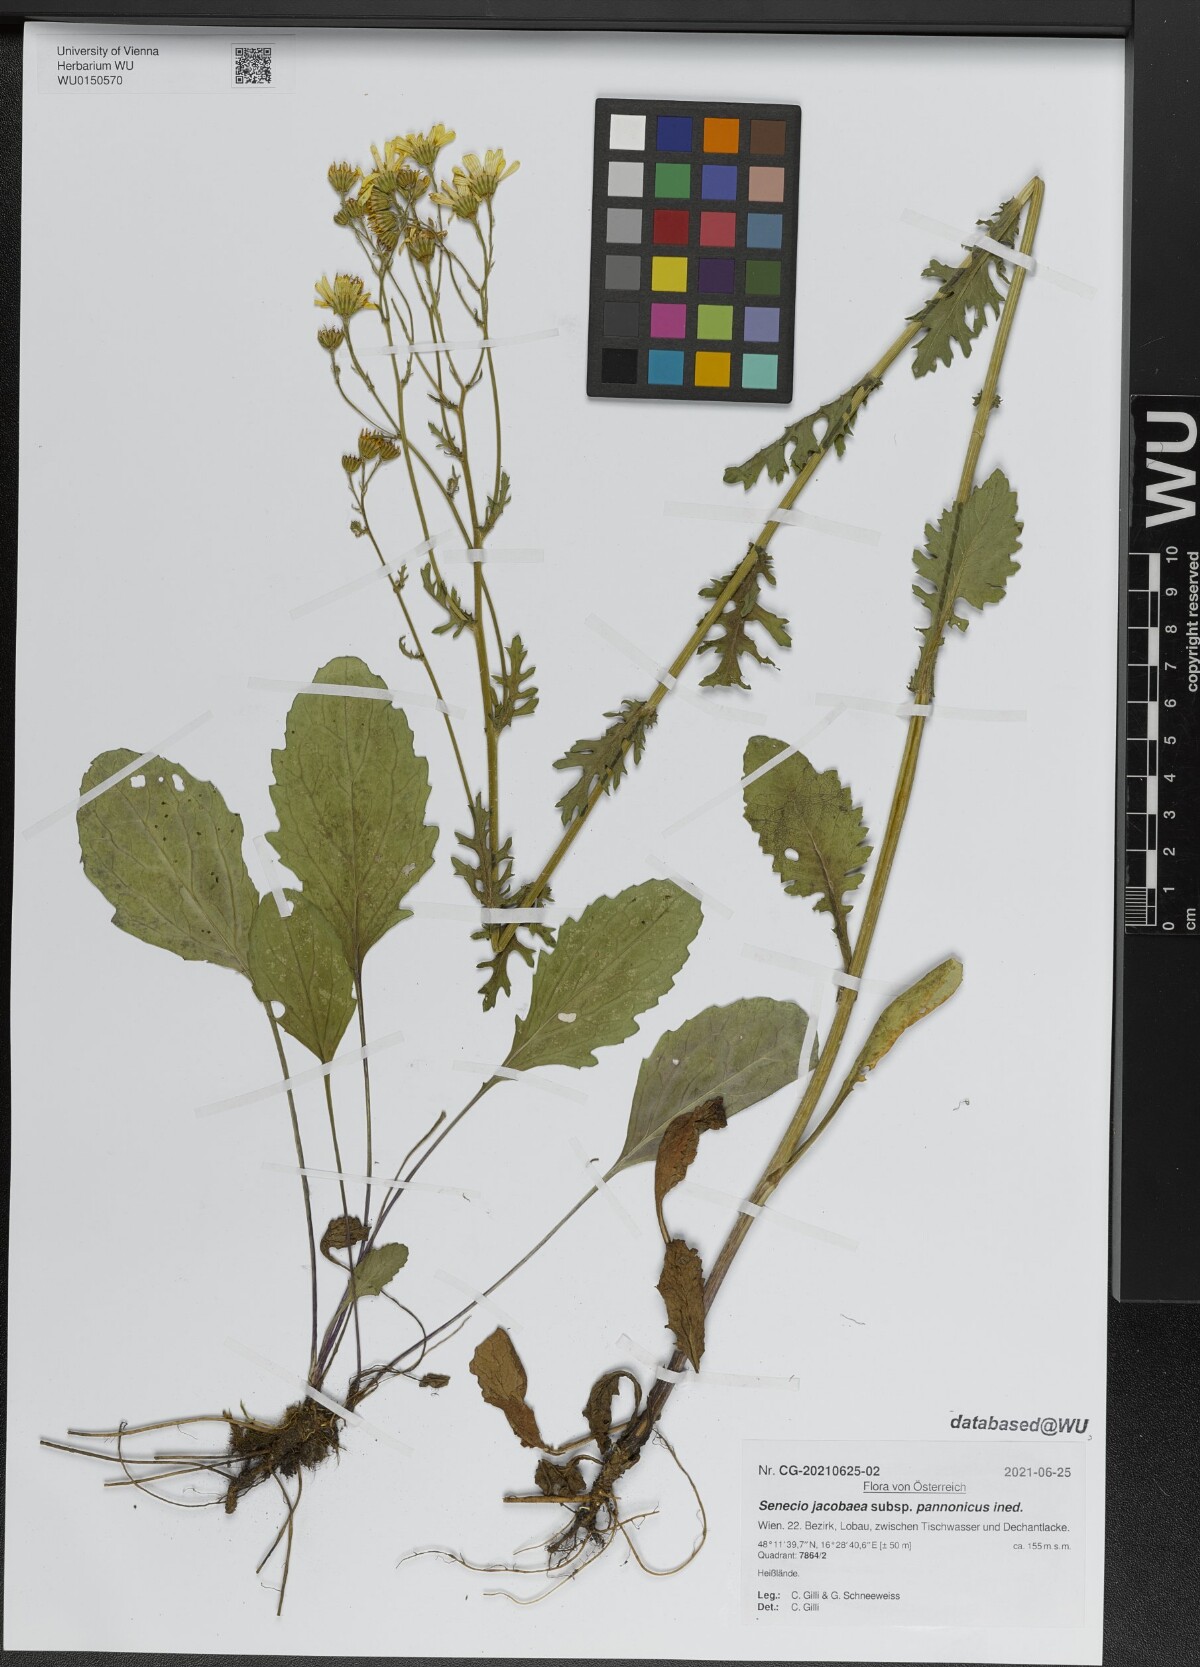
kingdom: Plantae
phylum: Tracheophyta
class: Magnoliopsida
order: Asterales
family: Asteraceae
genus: Senecio
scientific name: Senecio jacobaea
